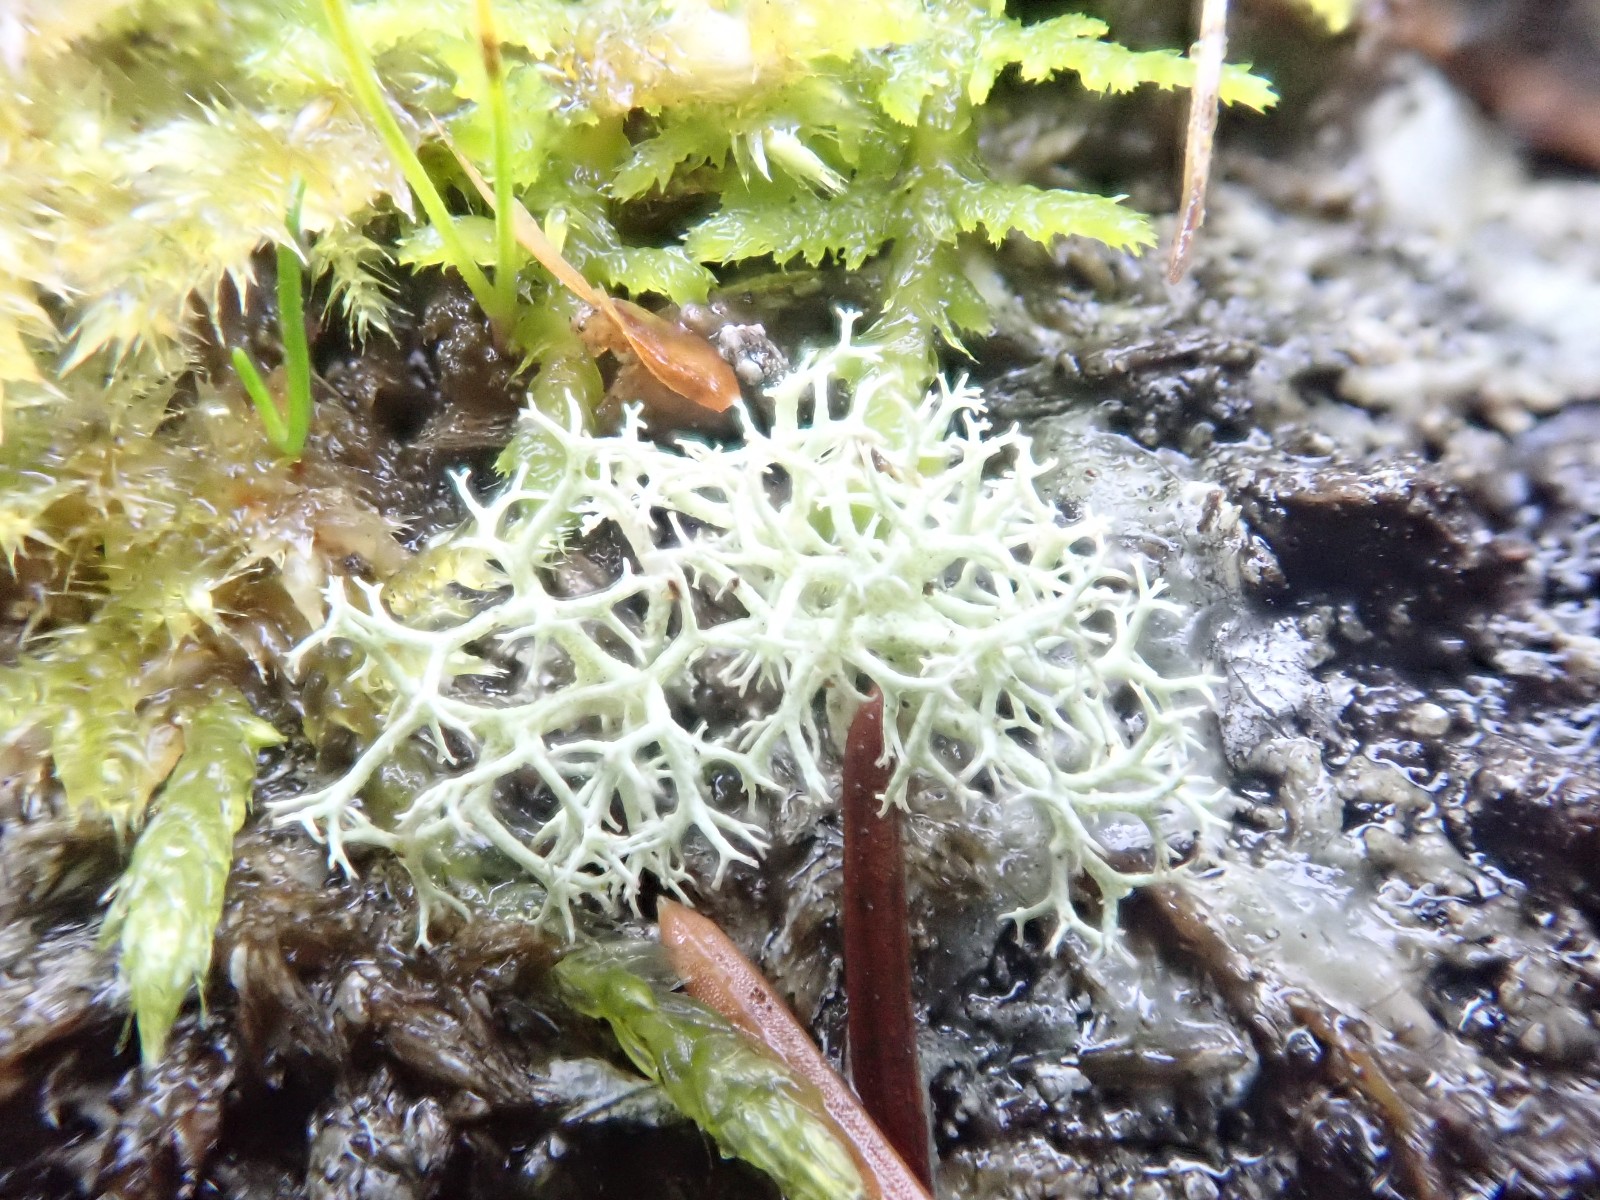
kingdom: Fungi
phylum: Ascomycota
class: Lecanoromycetes
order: Lecanorales
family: Cladoniaceae
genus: Cladonia
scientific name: Cladonia portentosa
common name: hede-rensdyrlav
